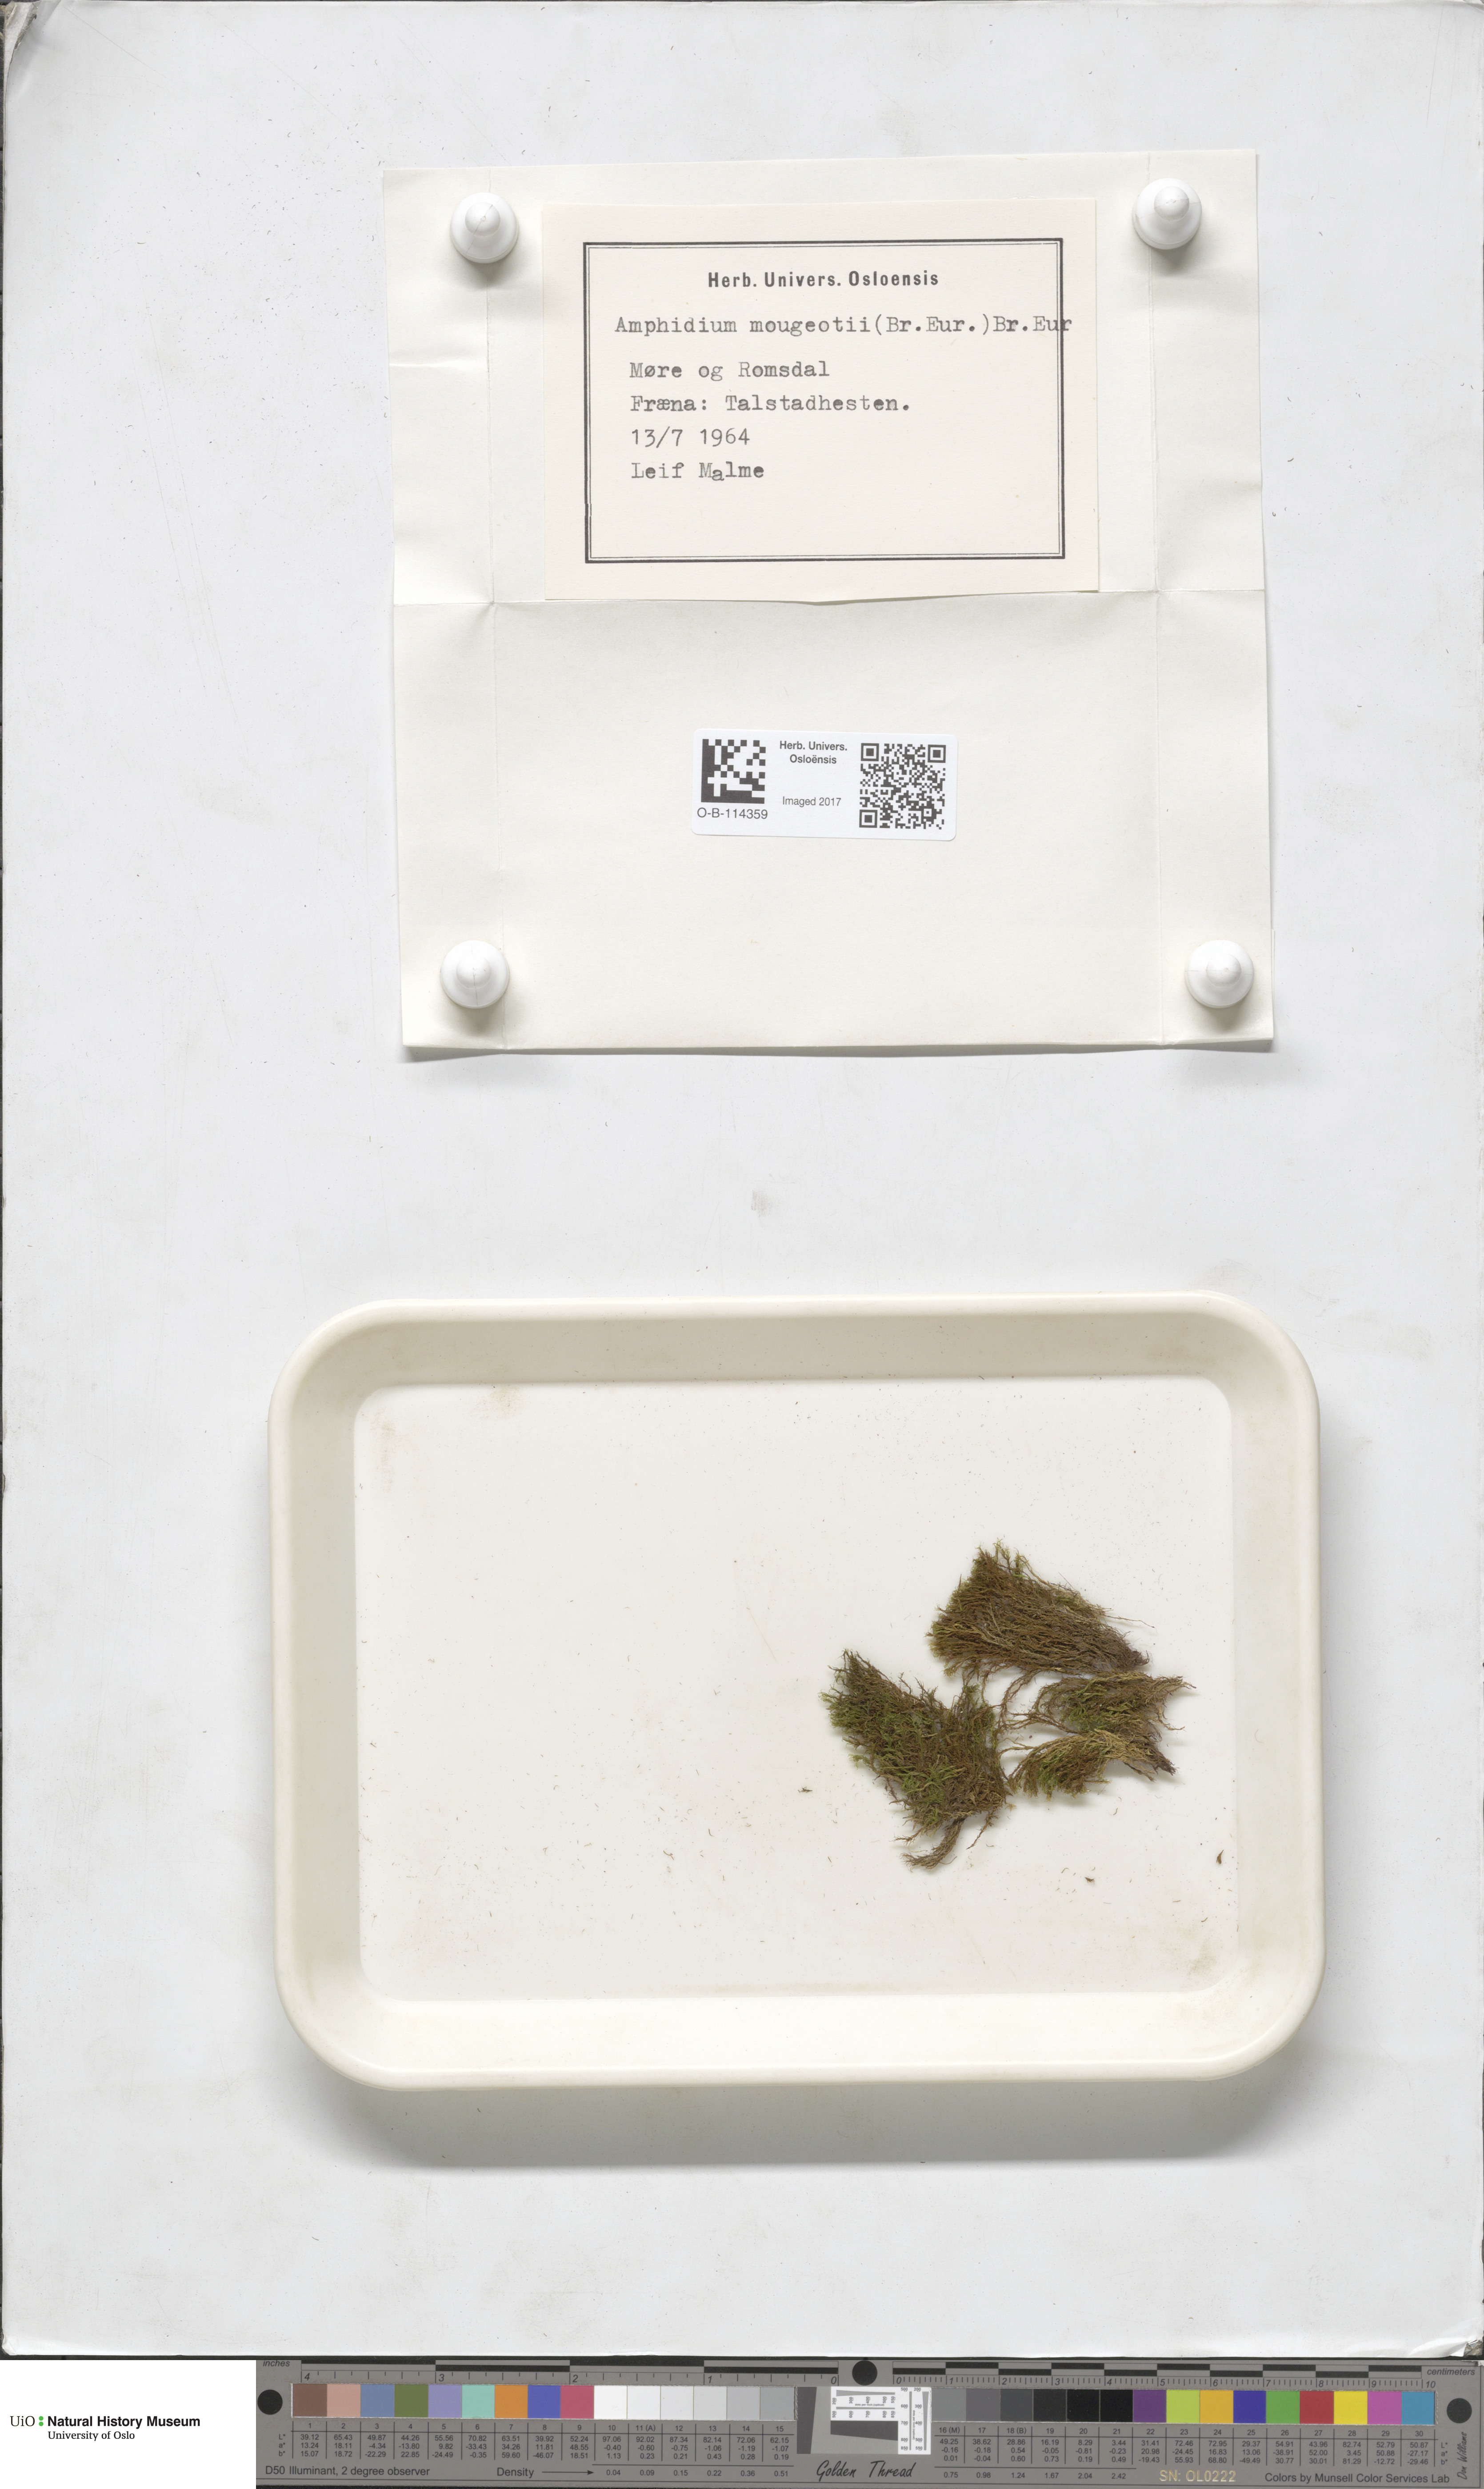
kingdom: Plantae
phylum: Bryophyta
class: Bryopsida
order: Dicranales
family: Amphidiaceae
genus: Amphidium
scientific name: Amphidium mougeotii
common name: Mougeot's yoke moss
